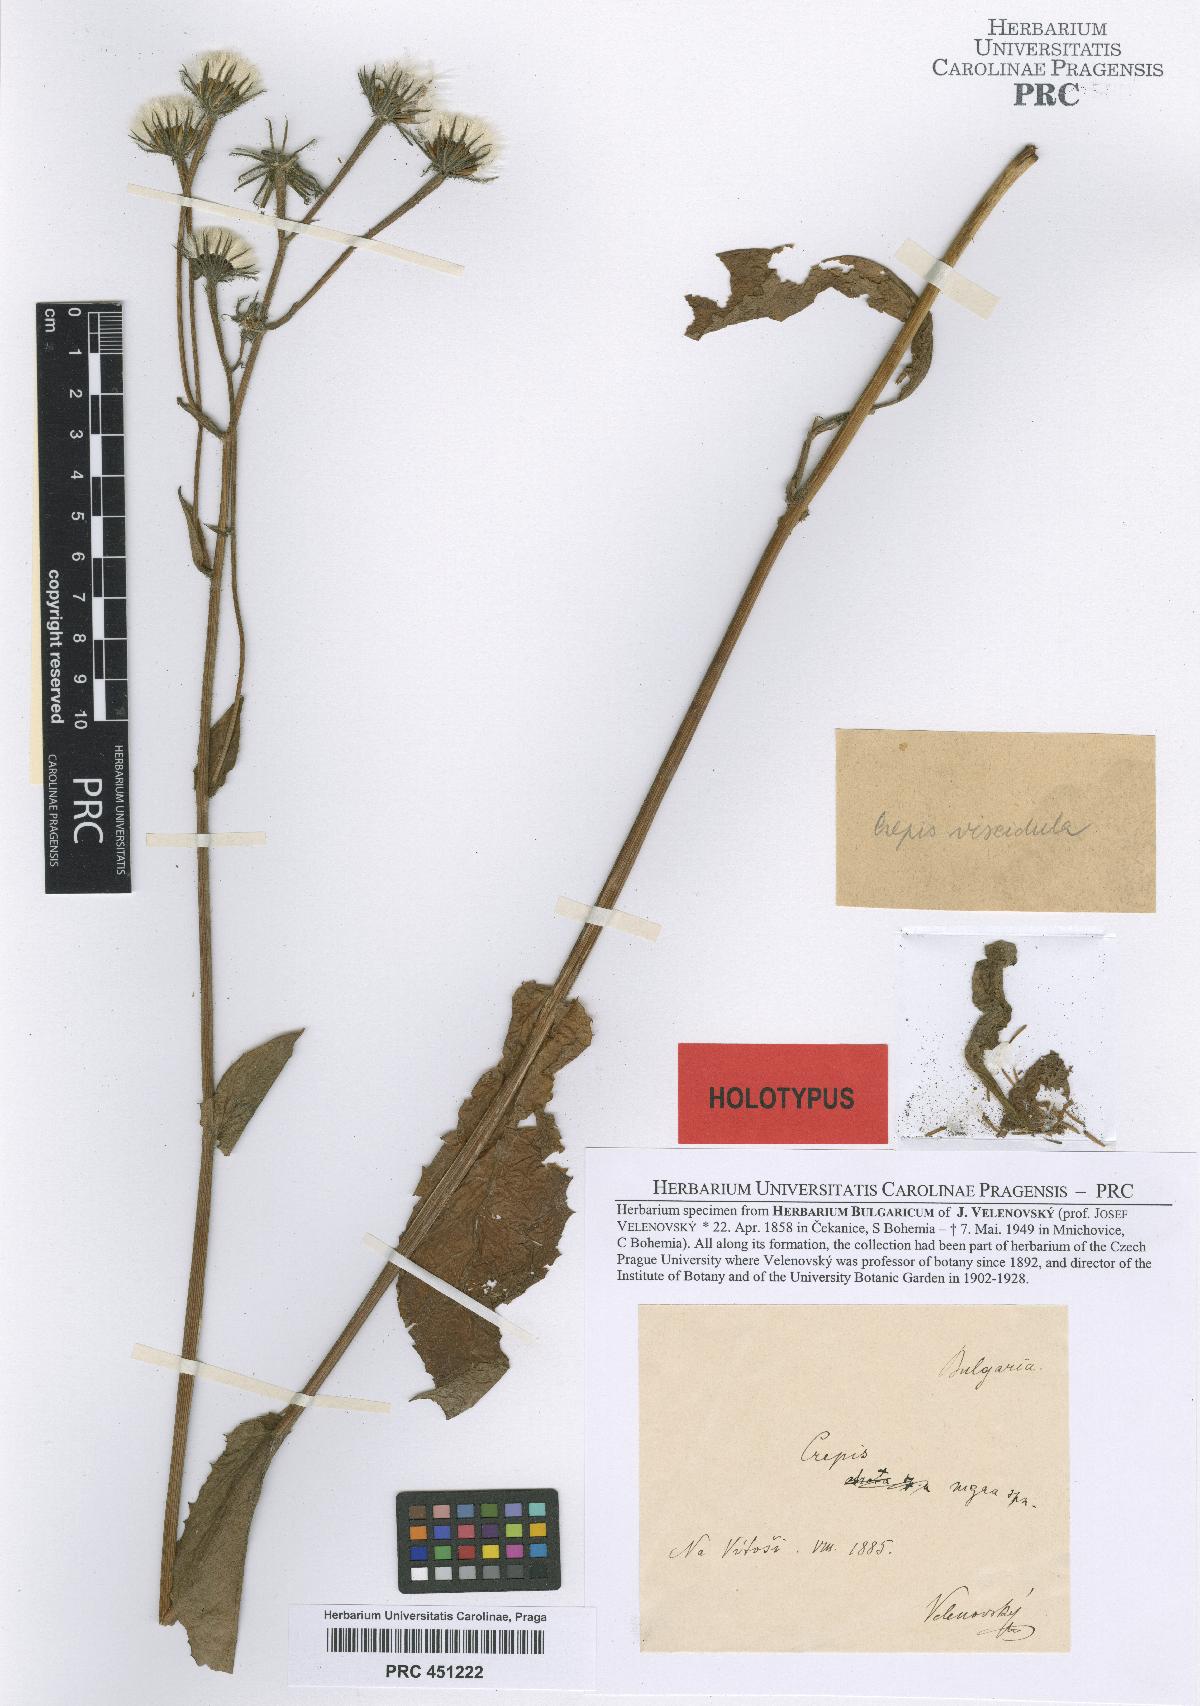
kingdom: Plantae
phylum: Tracheophyta
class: Magnoliopsida
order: Asterales
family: Asteraceae
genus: Crepis
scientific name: Crepis viscidula
